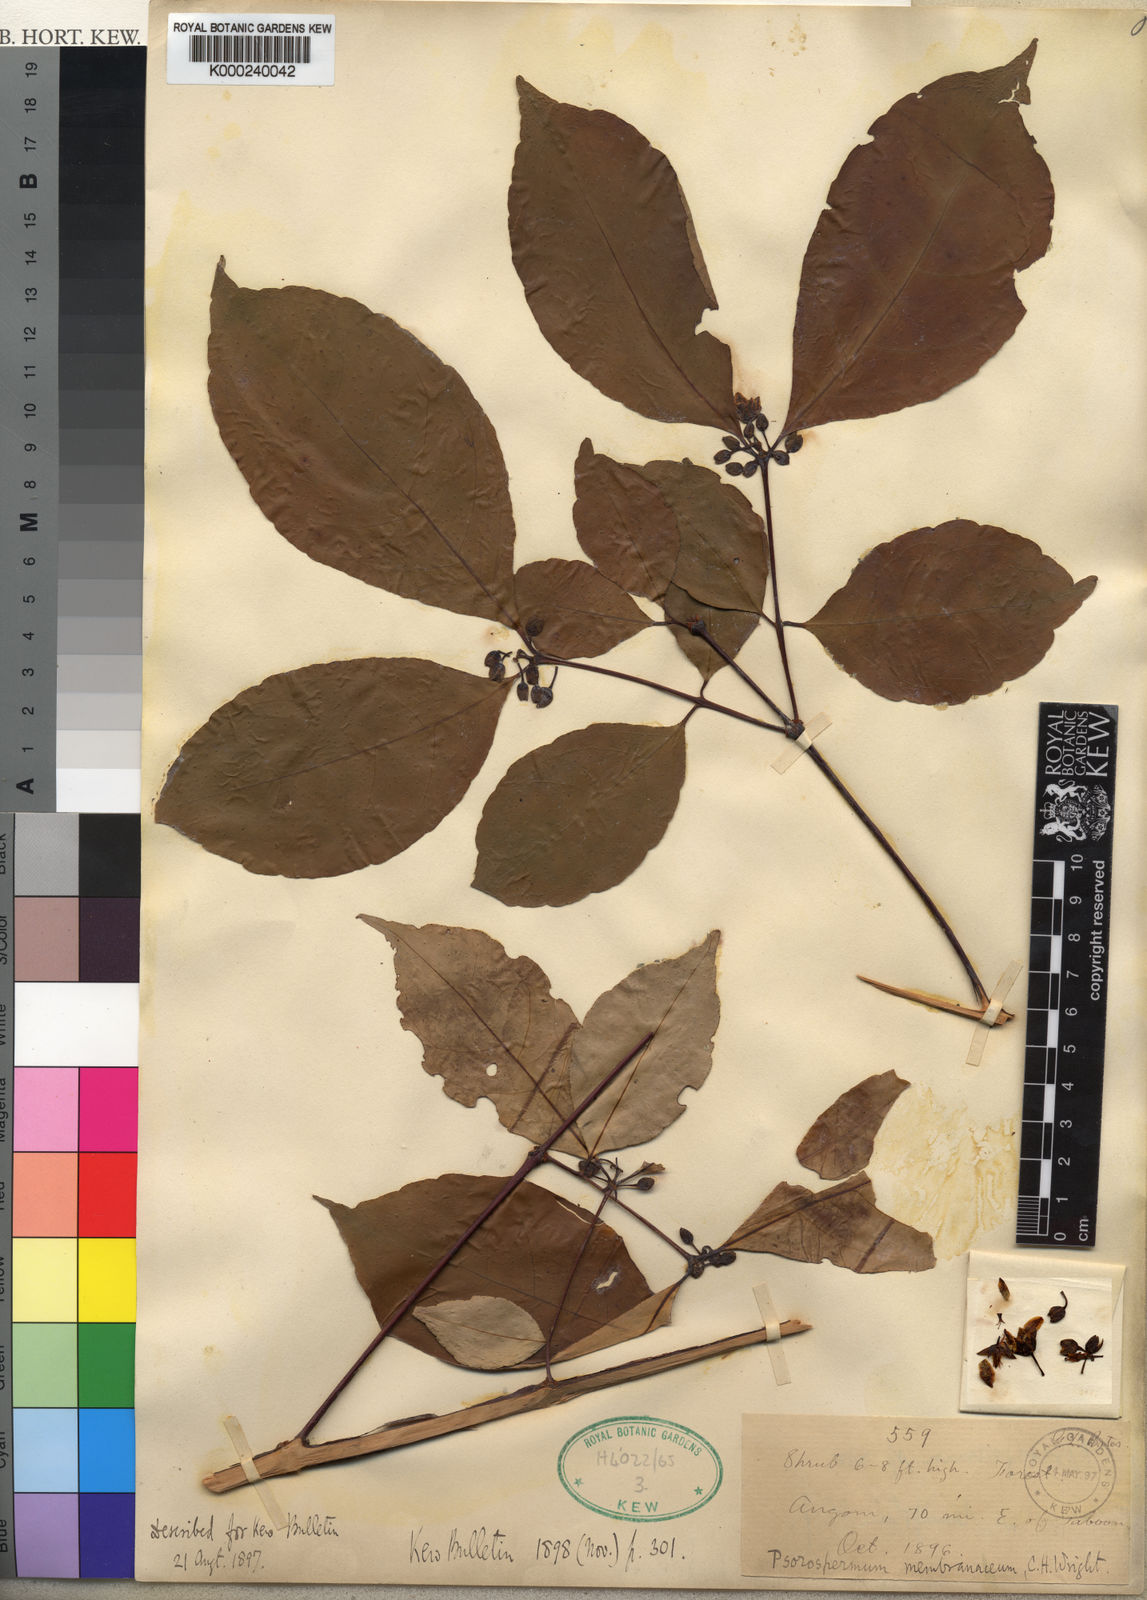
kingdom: Plantae
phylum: Tracheophyta
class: Magnoliopsida
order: Malpighiales
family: Hypericaceae
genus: Psorospermum
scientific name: Psorospermum membranaceum
